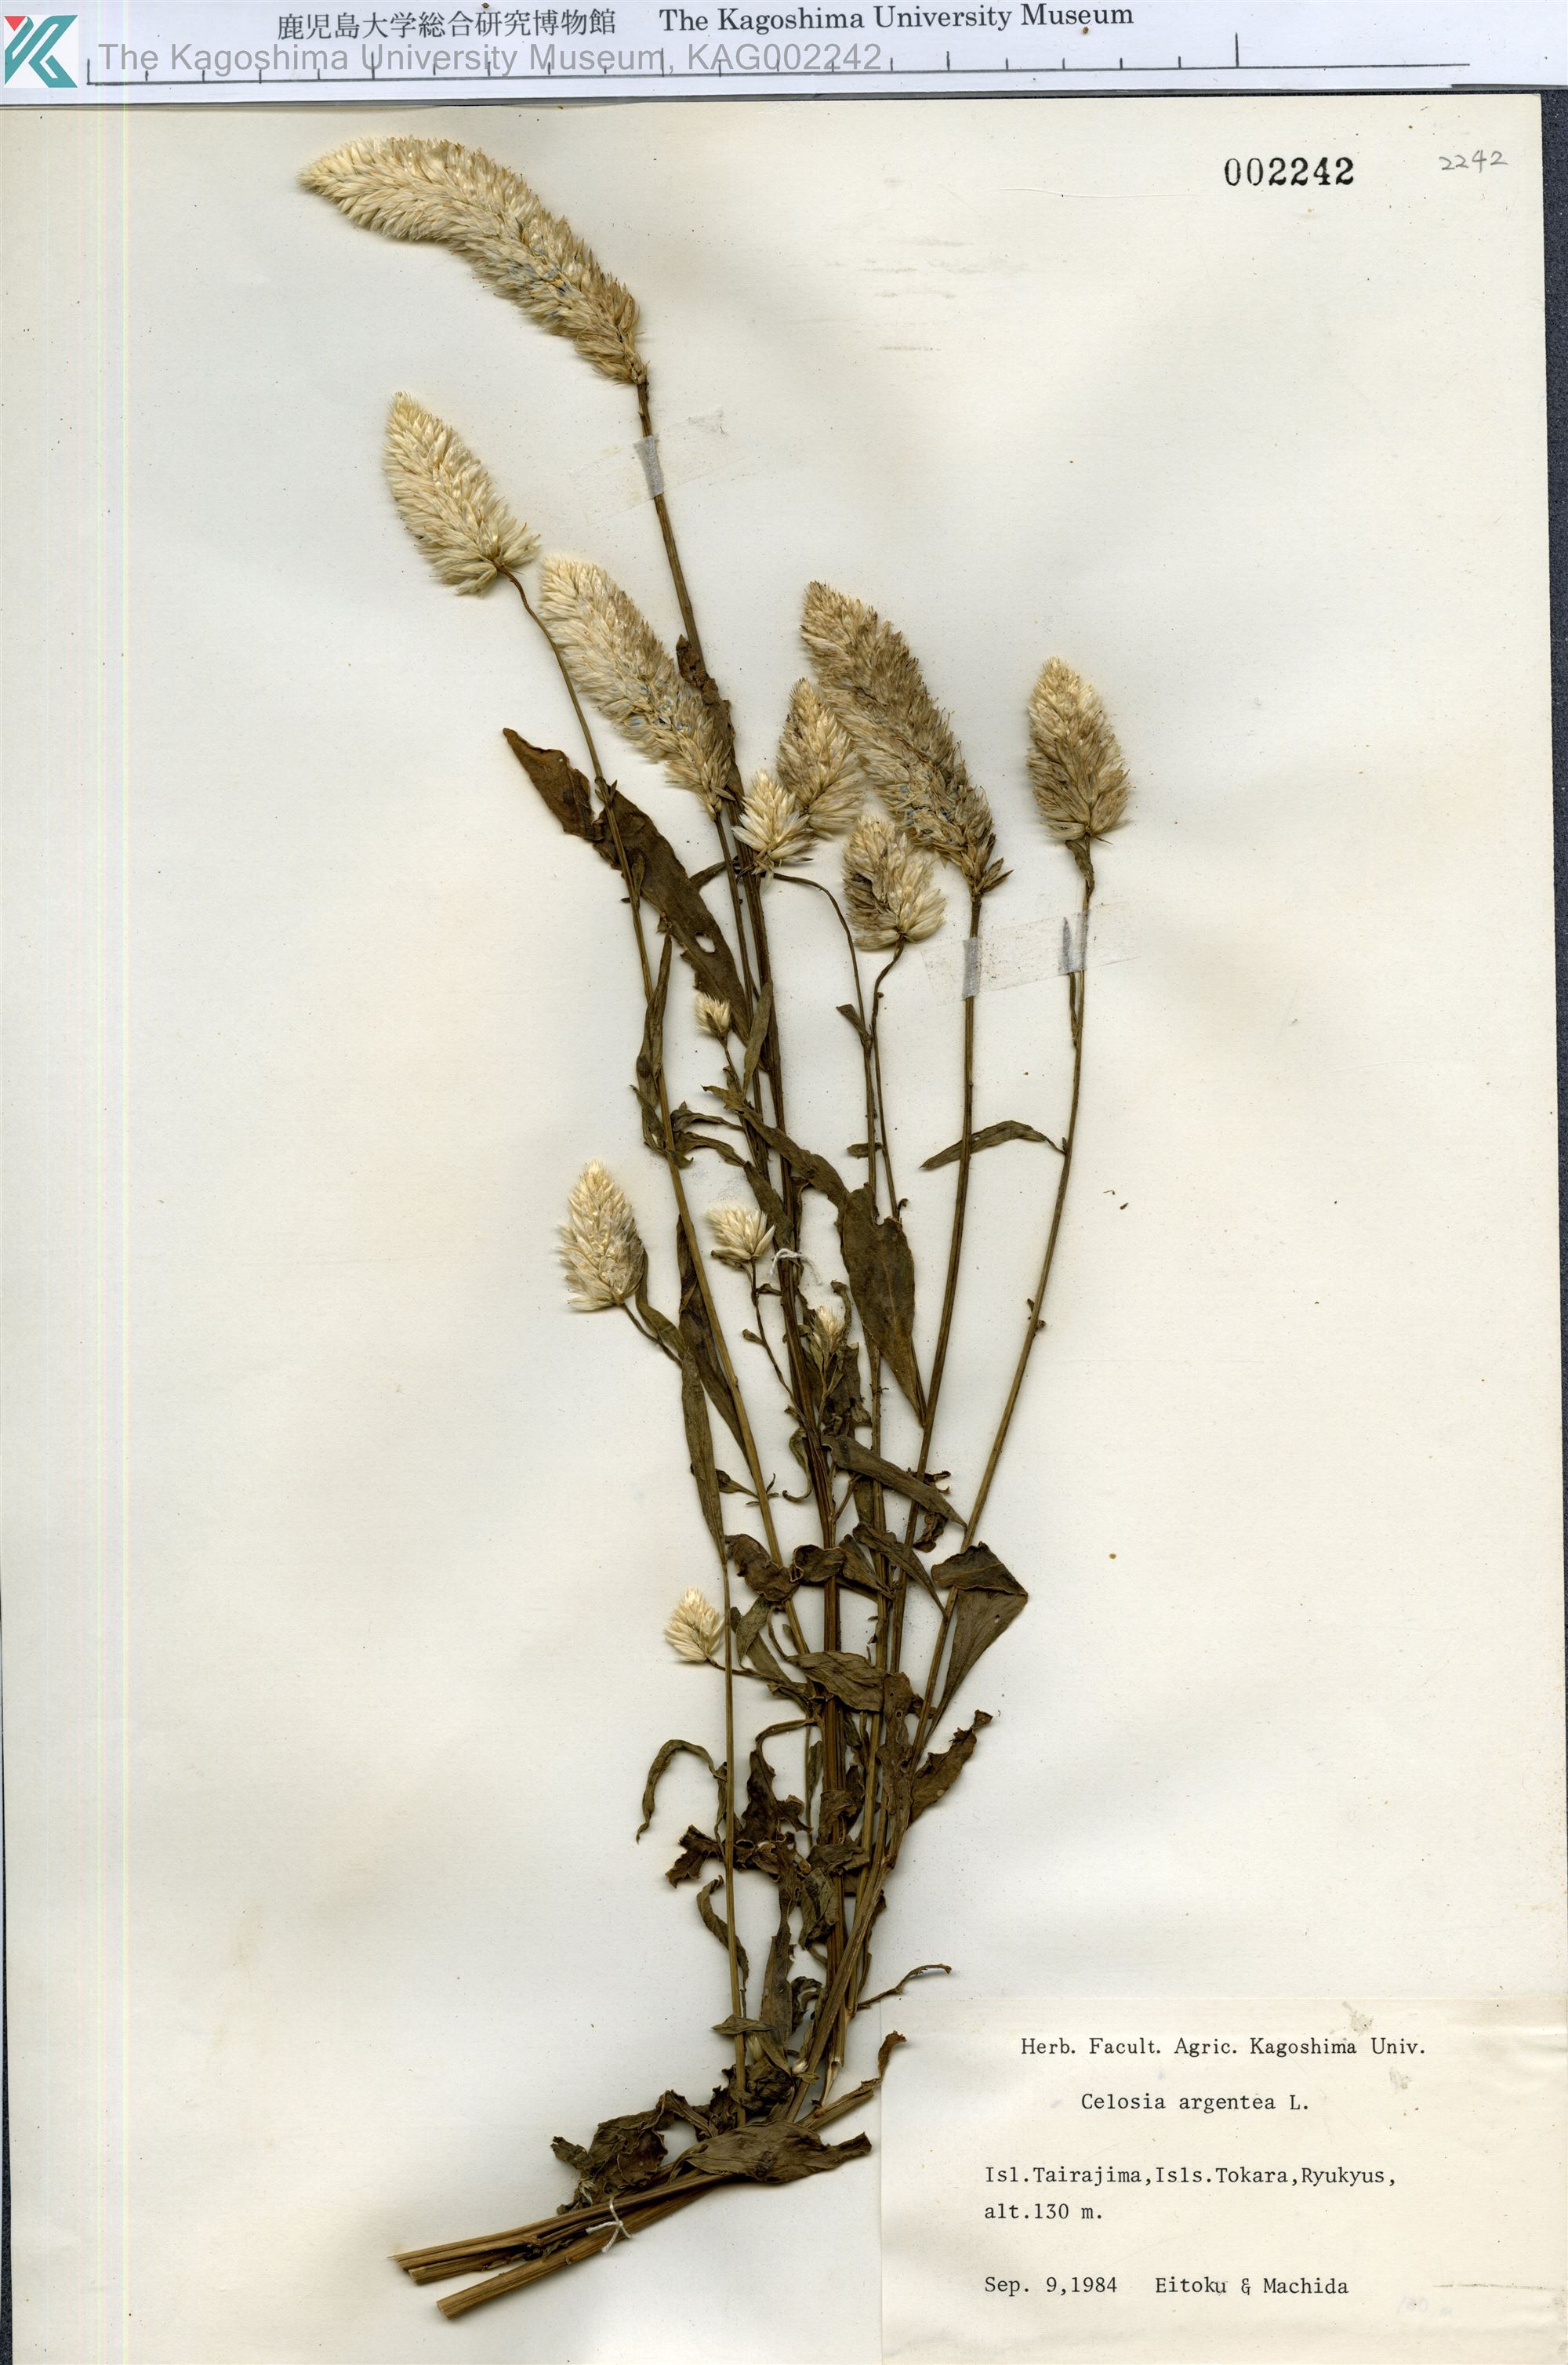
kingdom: Plantae
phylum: Tracheophyta
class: Magnoliopsida
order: Caryophyllales
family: Amaranthaceae
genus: Celosia
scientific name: Celosia argentea
